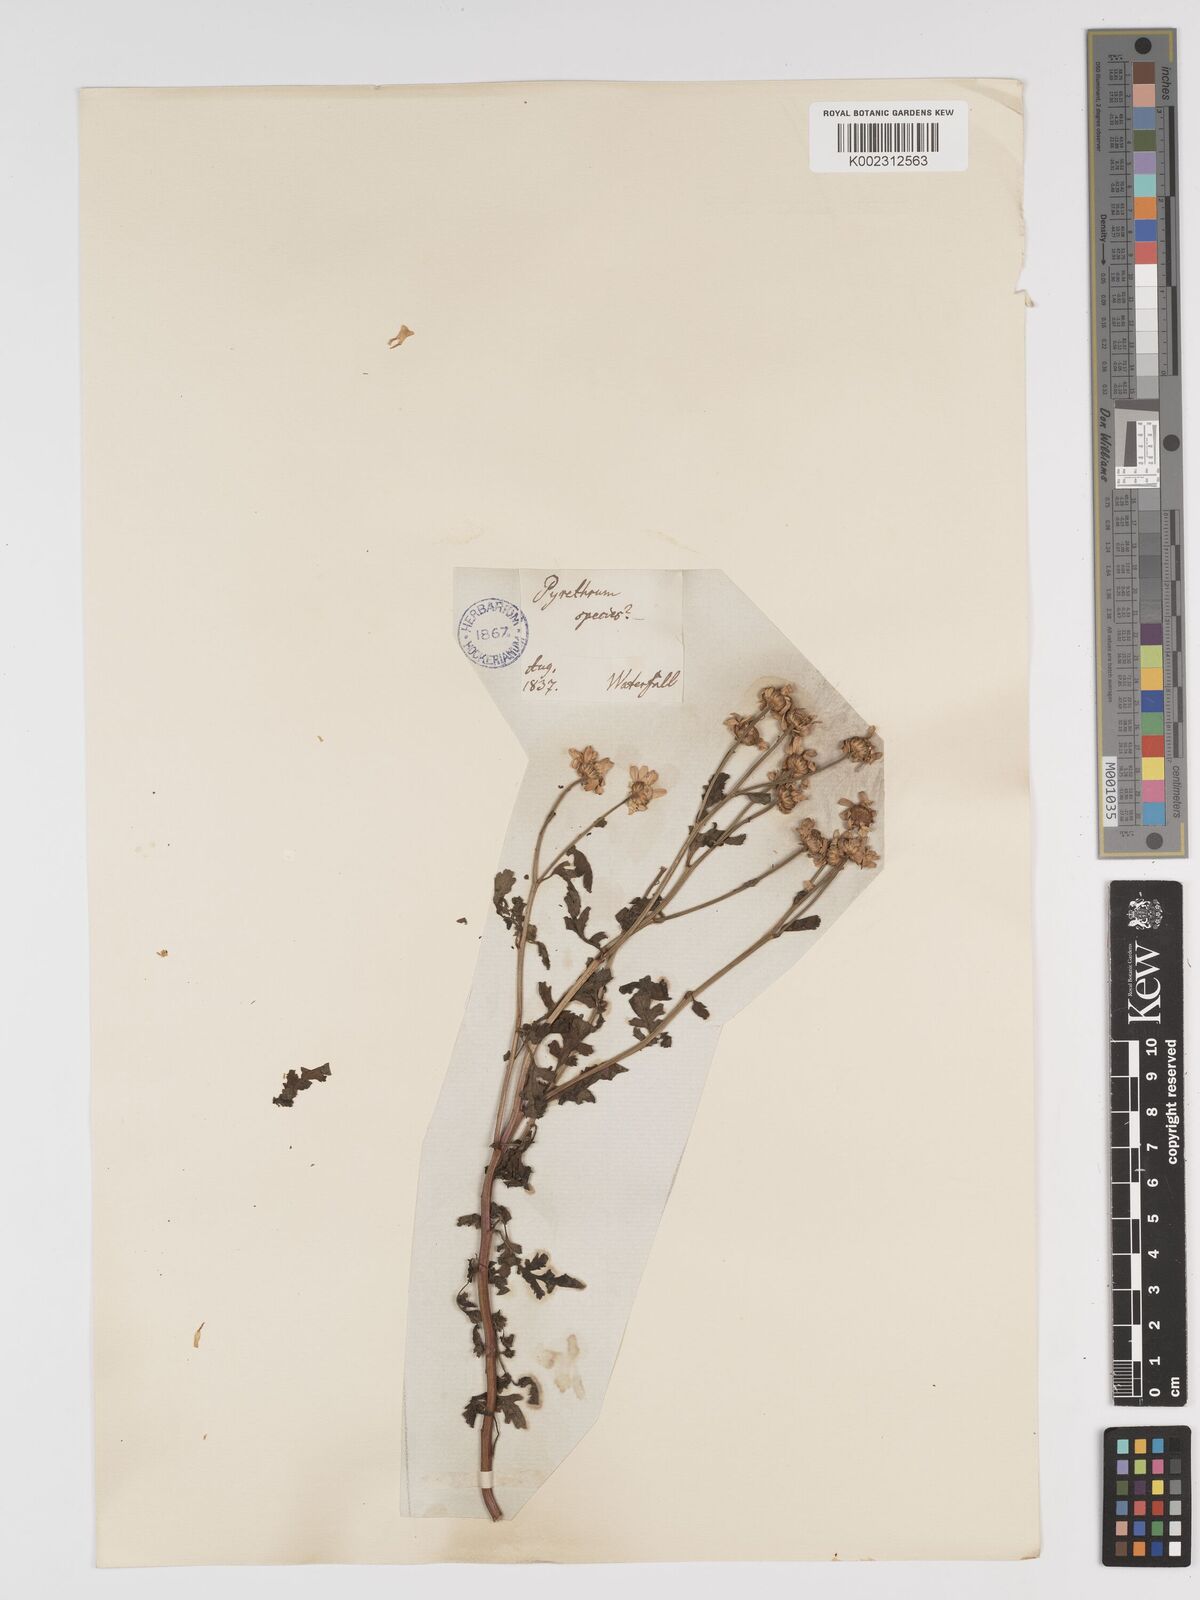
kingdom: Plantae
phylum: Tracheophyta
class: Magnoliopsida
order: Asterales
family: Asteraceae
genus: Tanacetum
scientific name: Tanacetum parthenium
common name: Feverfew
